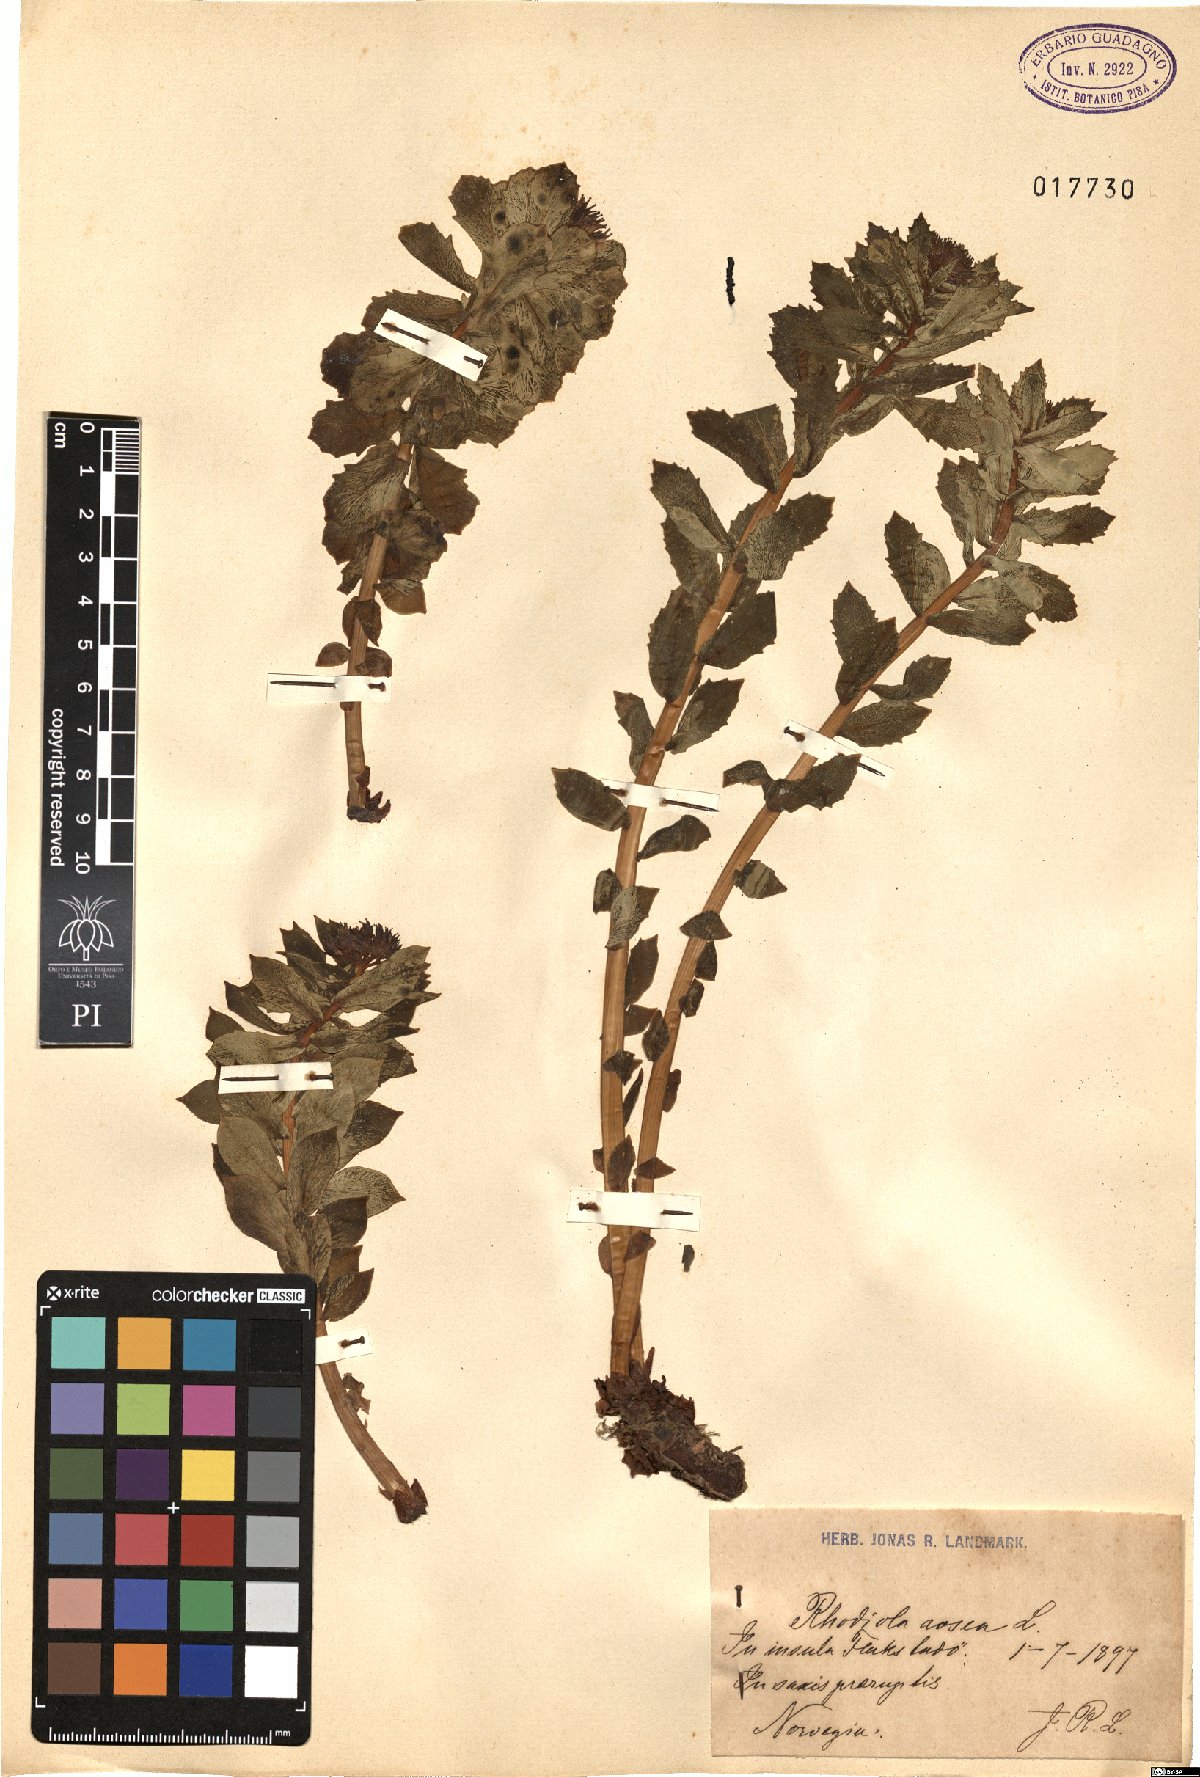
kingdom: Plantae
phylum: Tracheophyta
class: Magnoliopsida
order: Saxifragales
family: Crassulaceae
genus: Rhodiola
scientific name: Rhodiola rosea
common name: Roseroot
